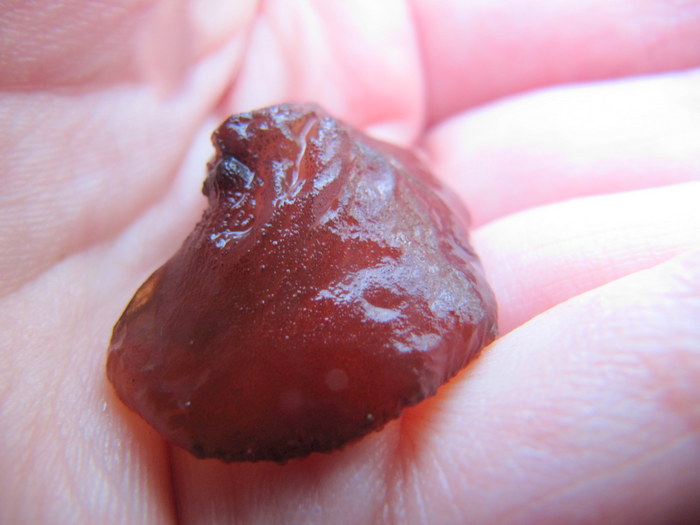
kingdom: Fungi
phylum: Basidiomycota
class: Agaricomycetes
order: Auriculariales
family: Auriculariaceae
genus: Exidia
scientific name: Exidia recisa
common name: pile-bævretop
